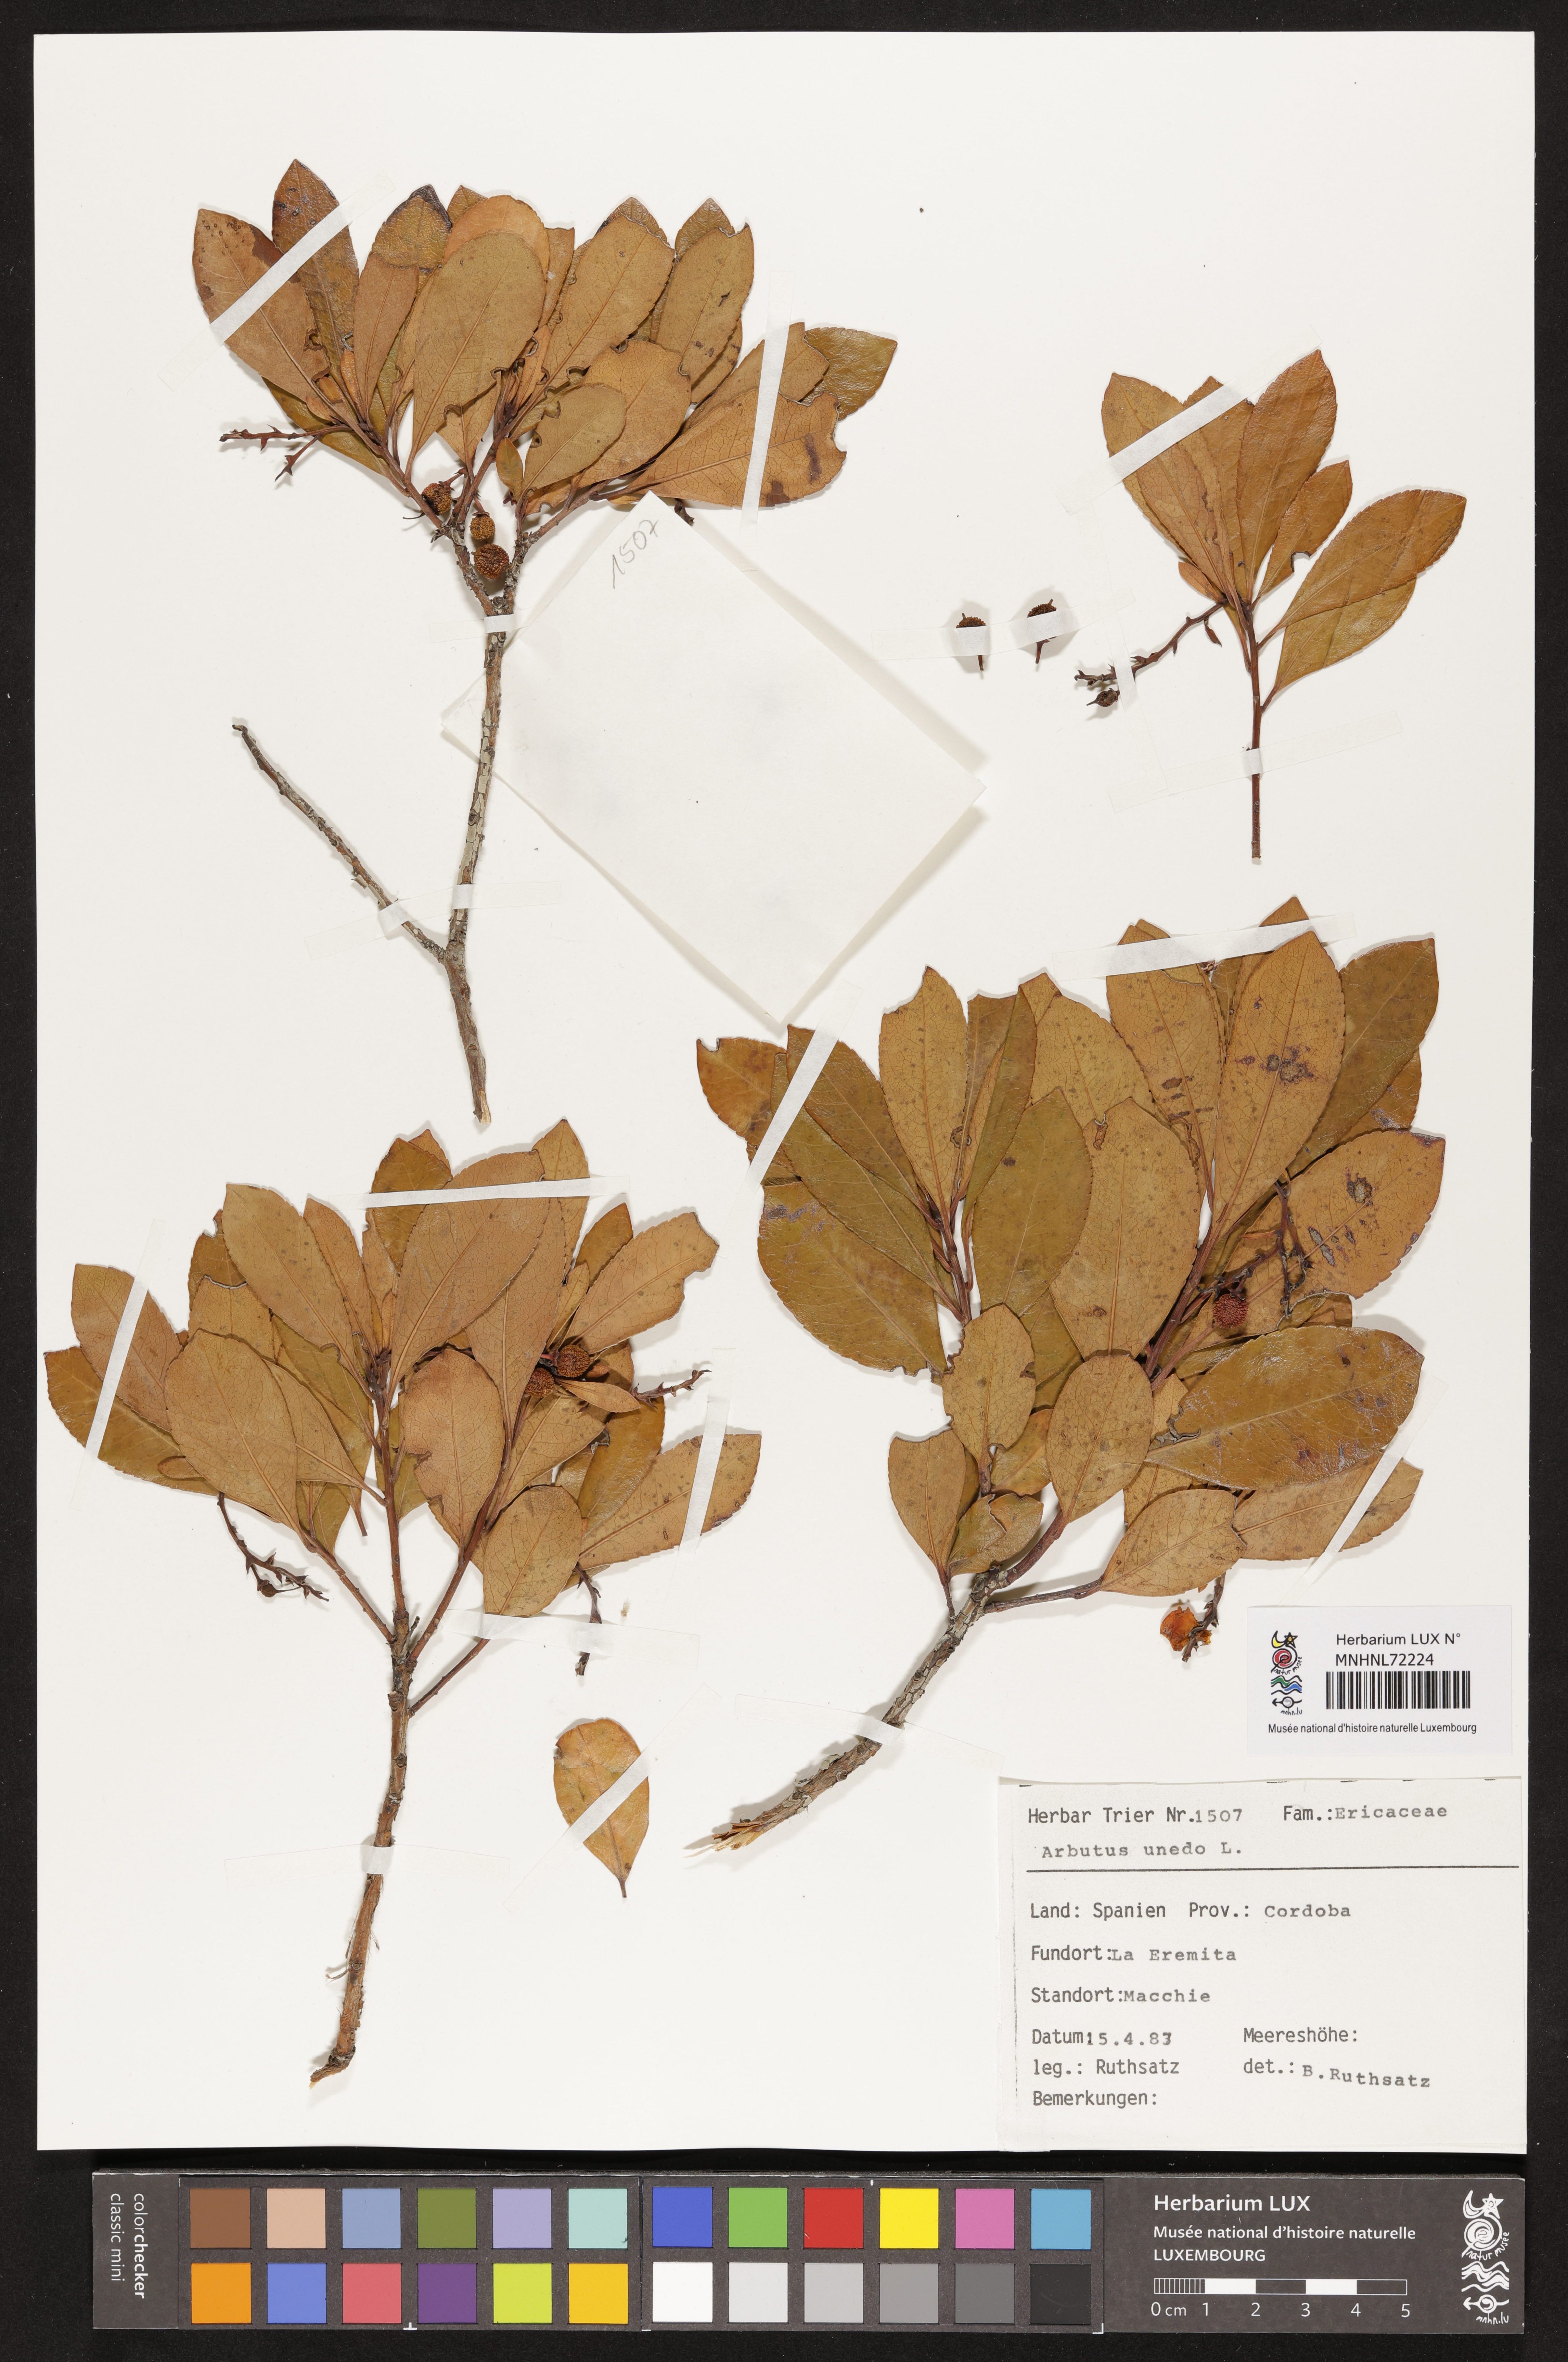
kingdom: Plantae
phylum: Tracheophyta
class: Magnoliopsida
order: Ericales
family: Ericaceae
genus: Arbutus
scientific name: Arbutus unedo
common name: Strawberry-tree
